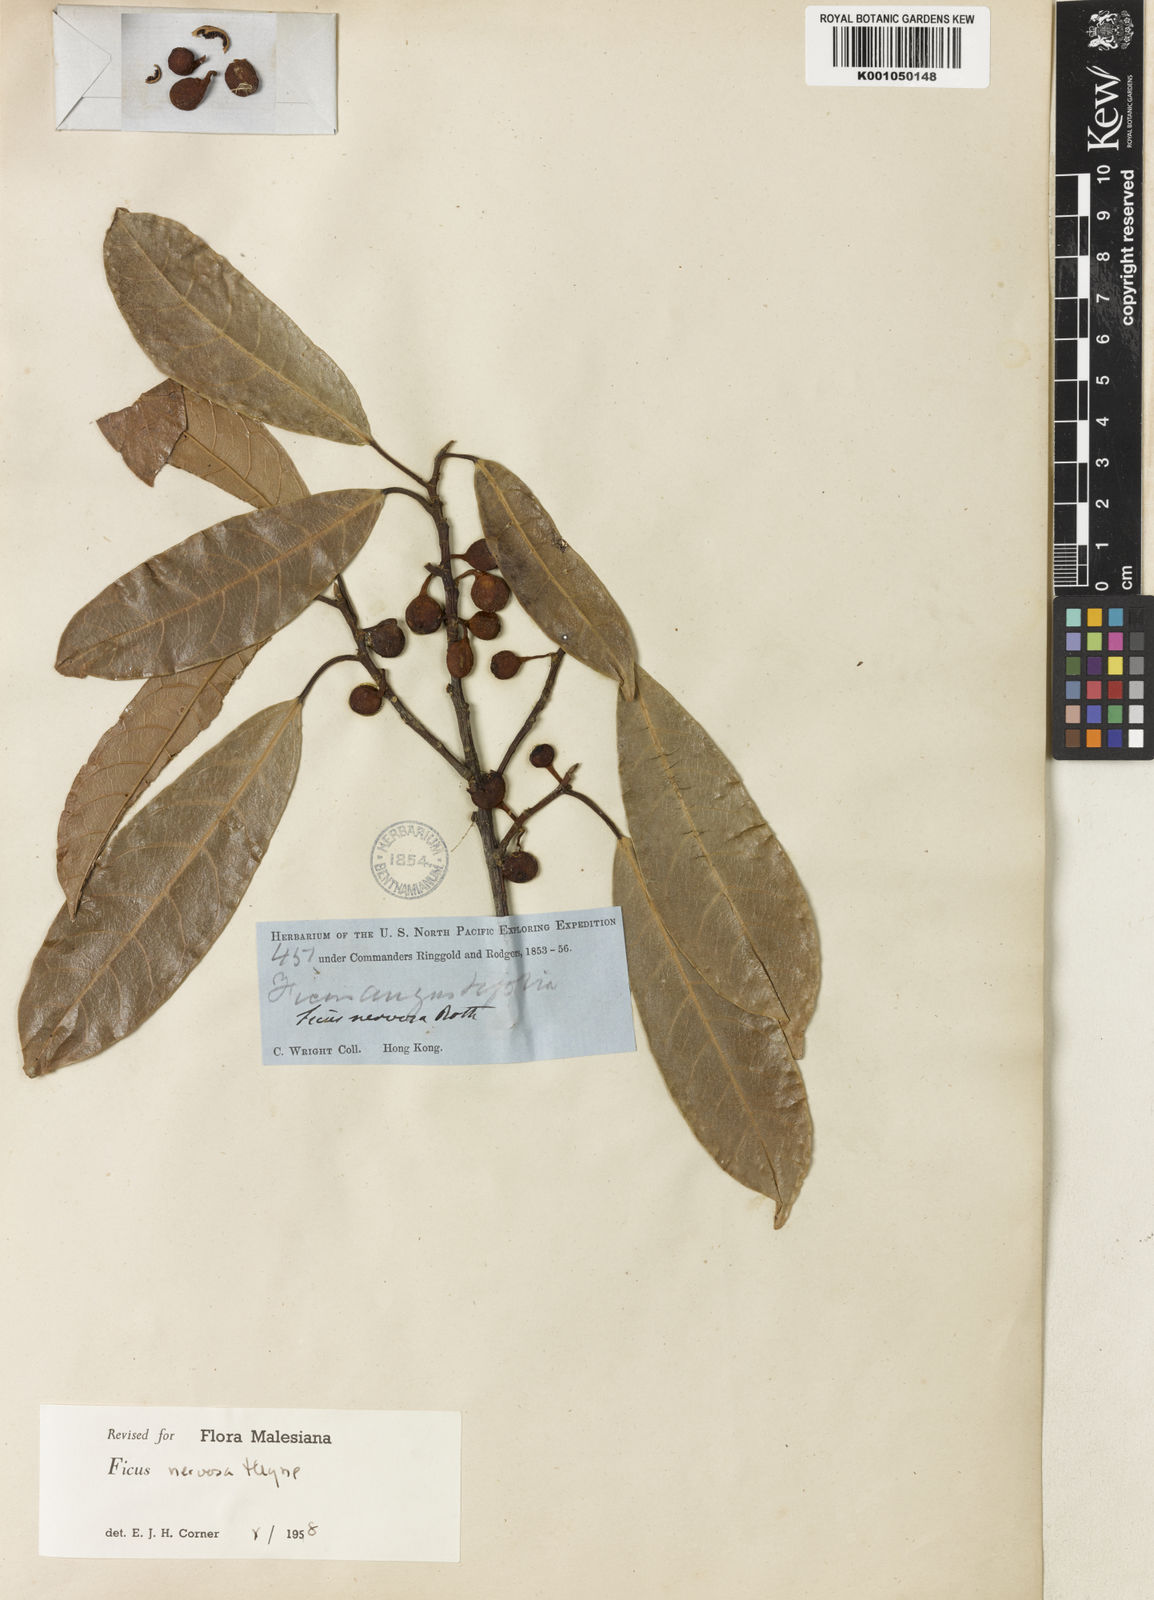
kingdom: Plantae
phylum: Tracheophyta
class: Magnoliopsida
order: Rosales
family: Moraceae
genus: Ficus
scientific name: Ficus nervosa
